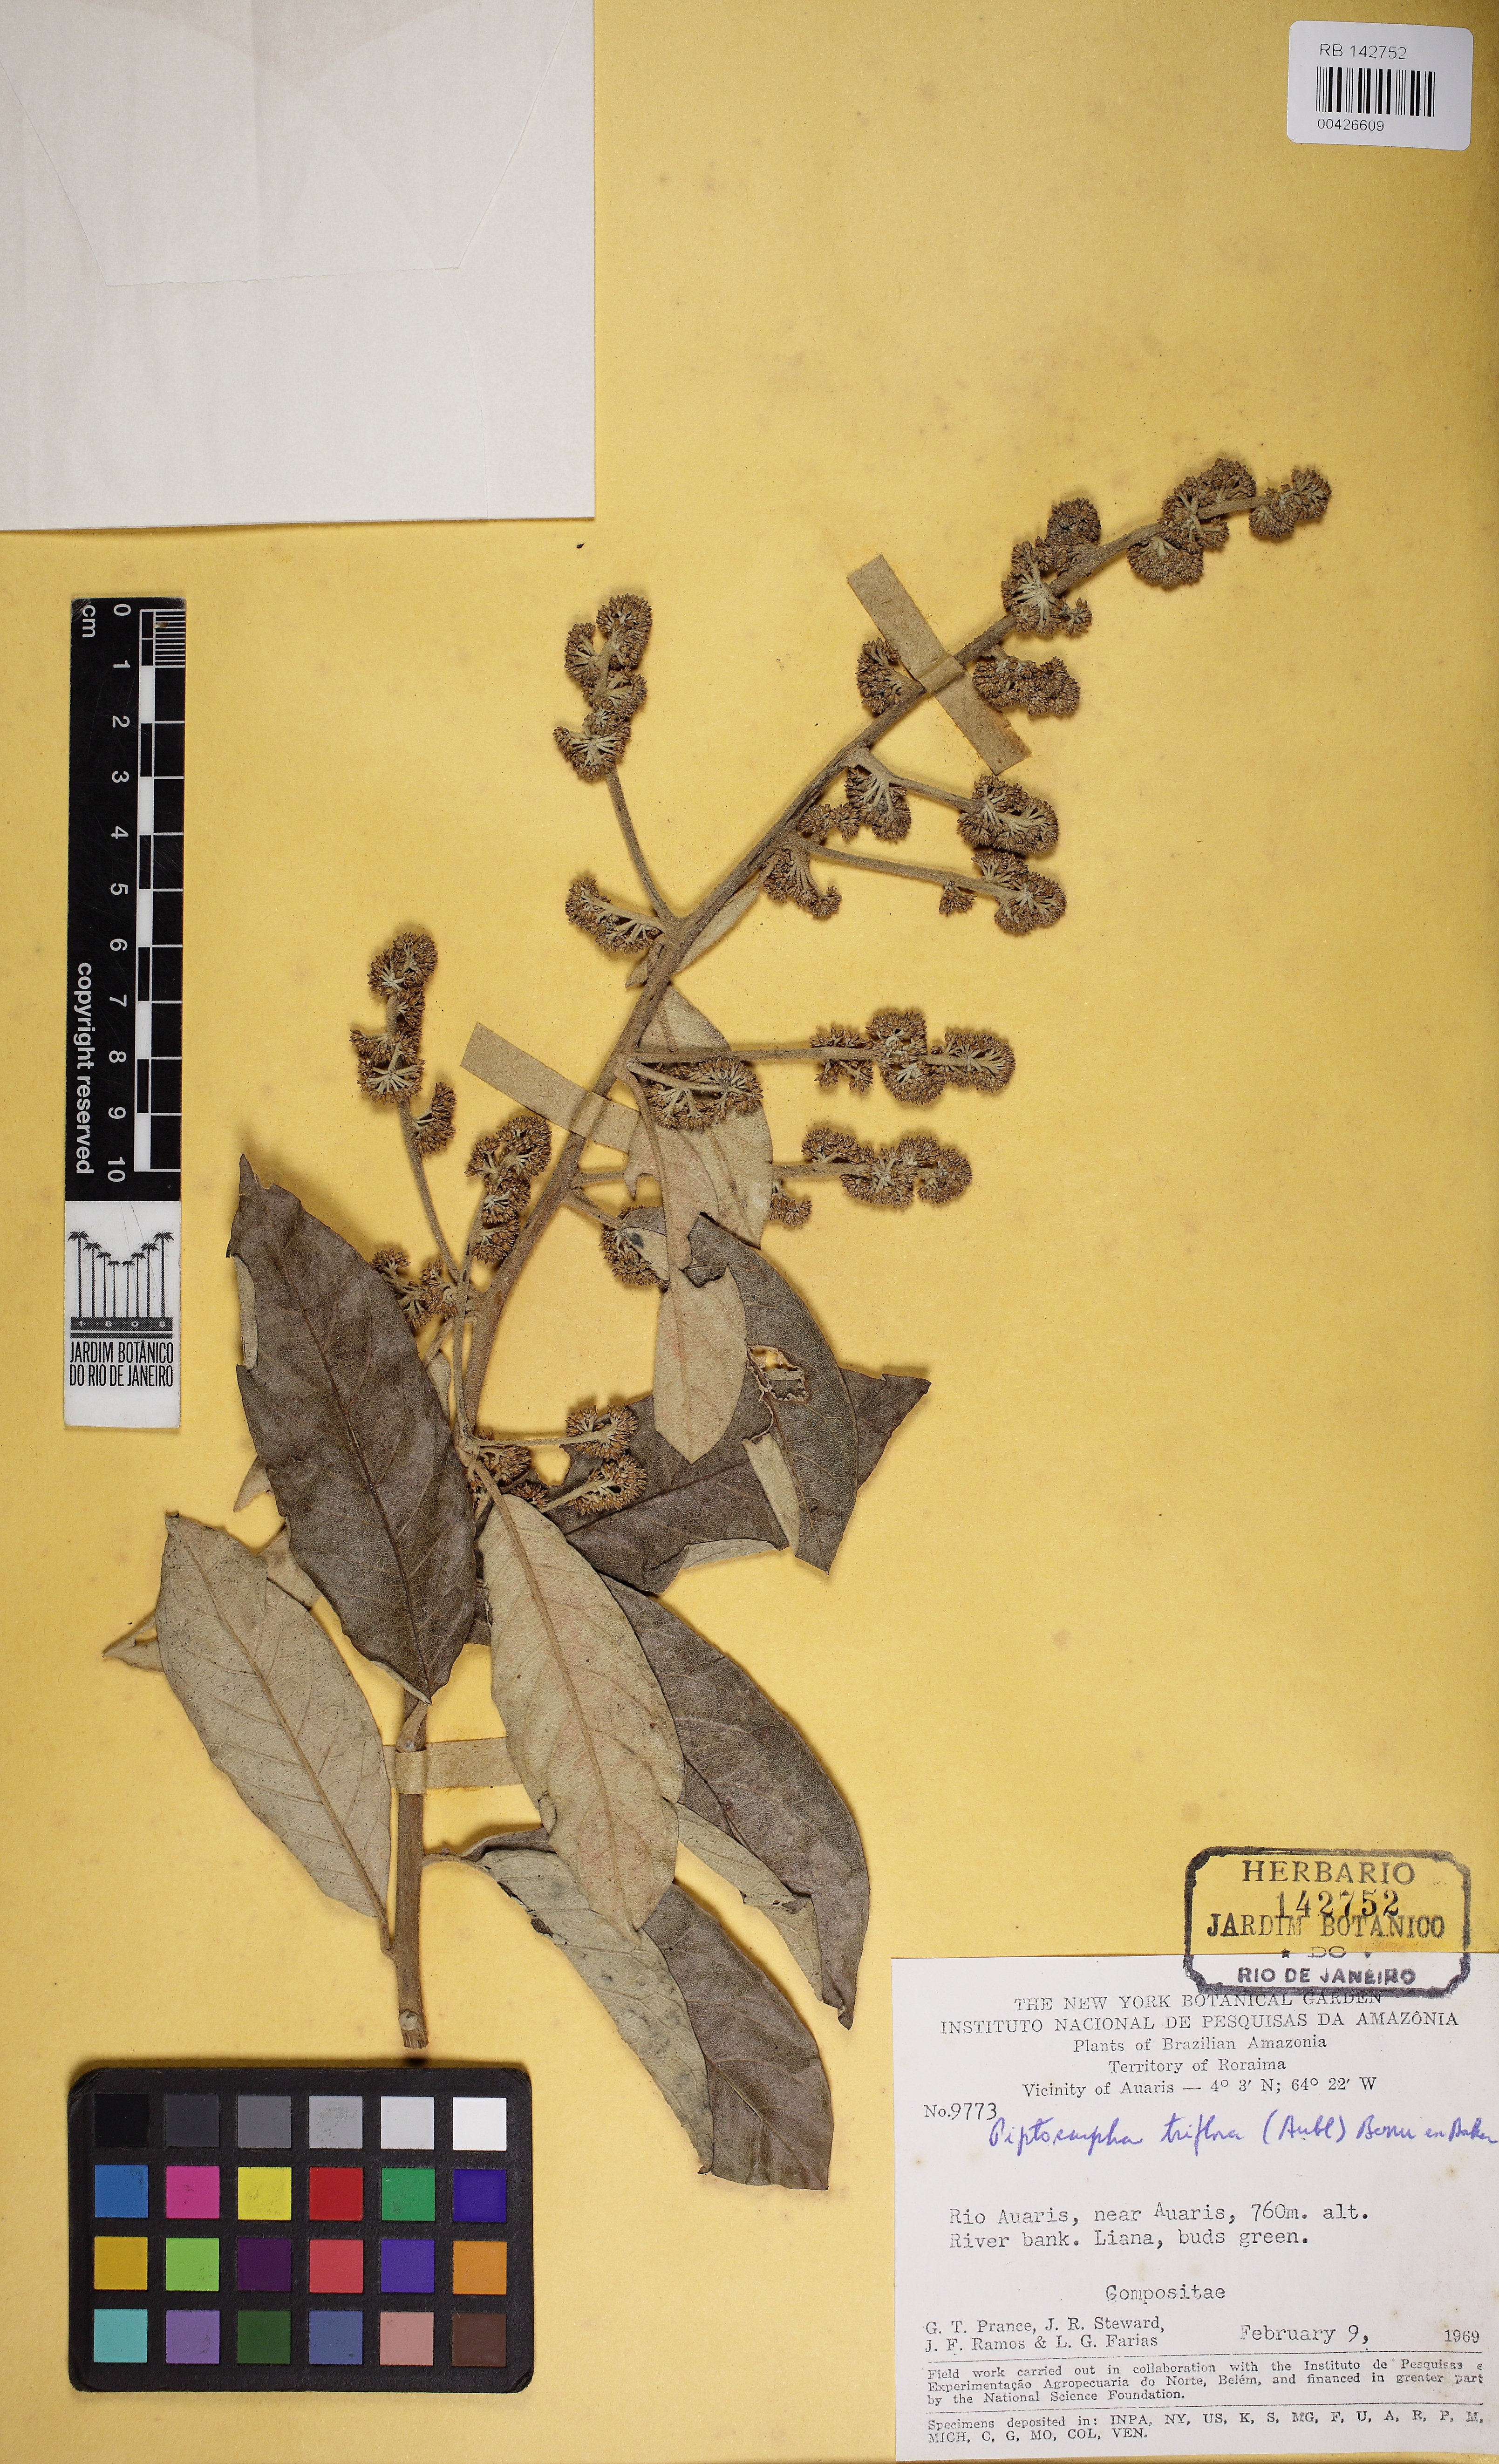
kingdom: Plantae
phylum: Tracheophyta
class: Magnoliopsida
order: Asterales
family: Asteraceae
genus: Piptocarpha
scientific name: Piptocarpha triflora
